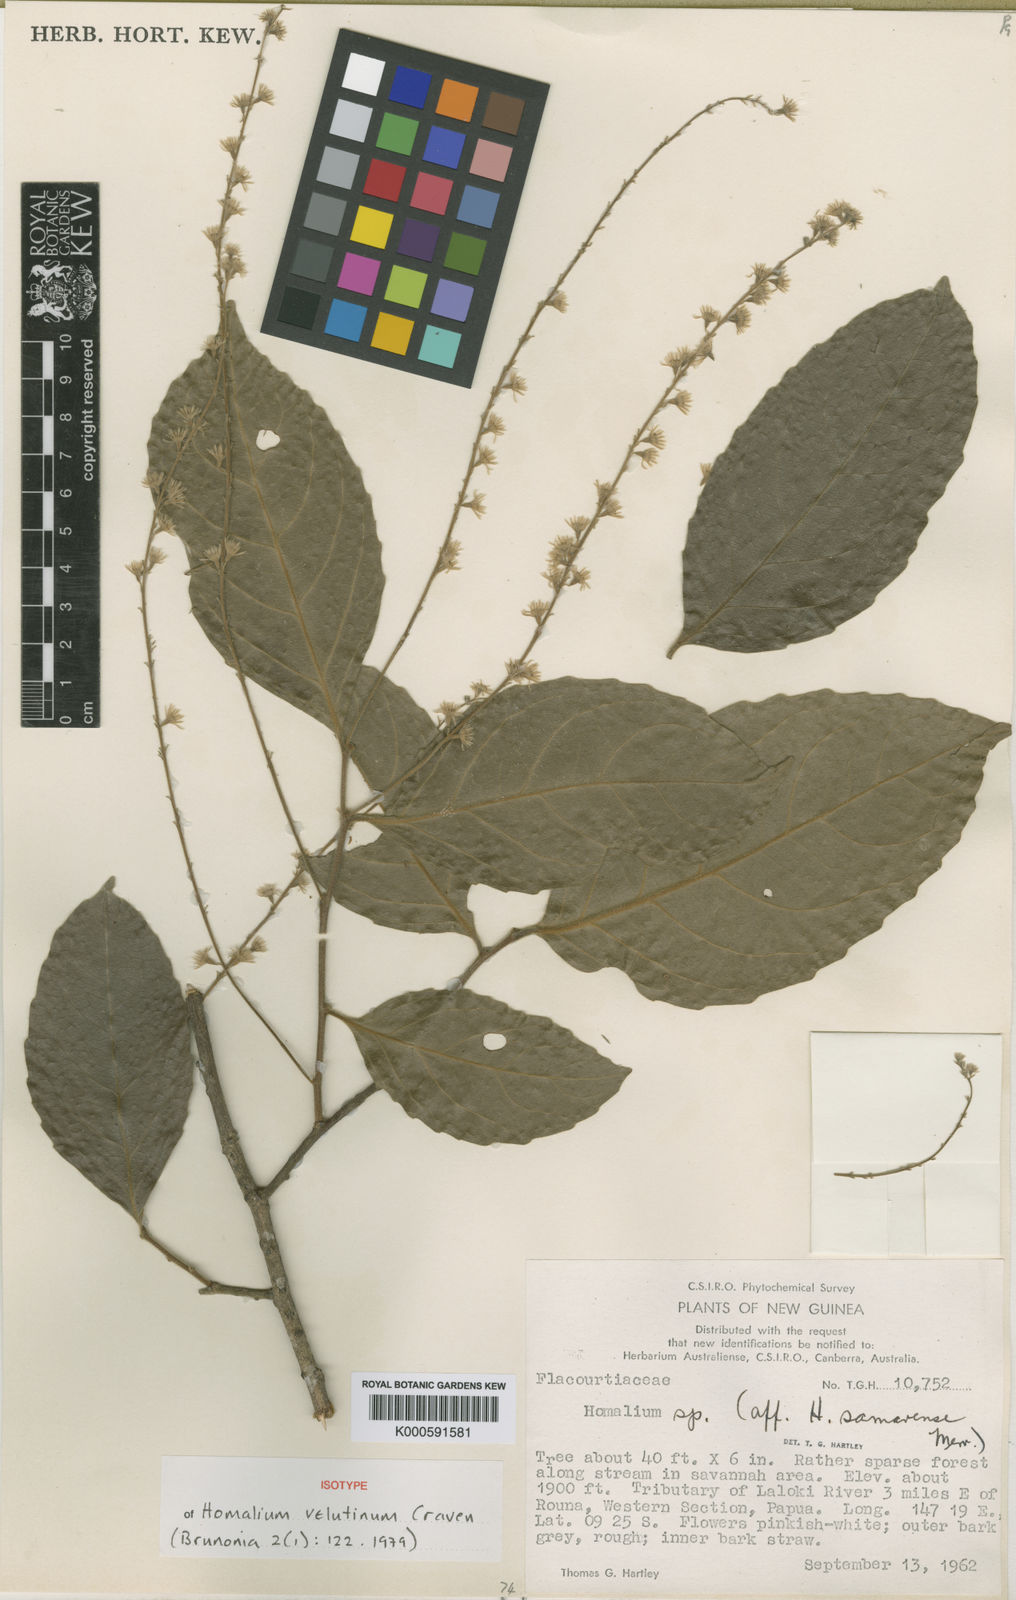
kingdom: Plantae
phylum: Tracheophyta
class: Magnoliopsida
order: Malpighiales
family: Salicaceae
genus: Homalium
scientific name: Homalium velutinum
